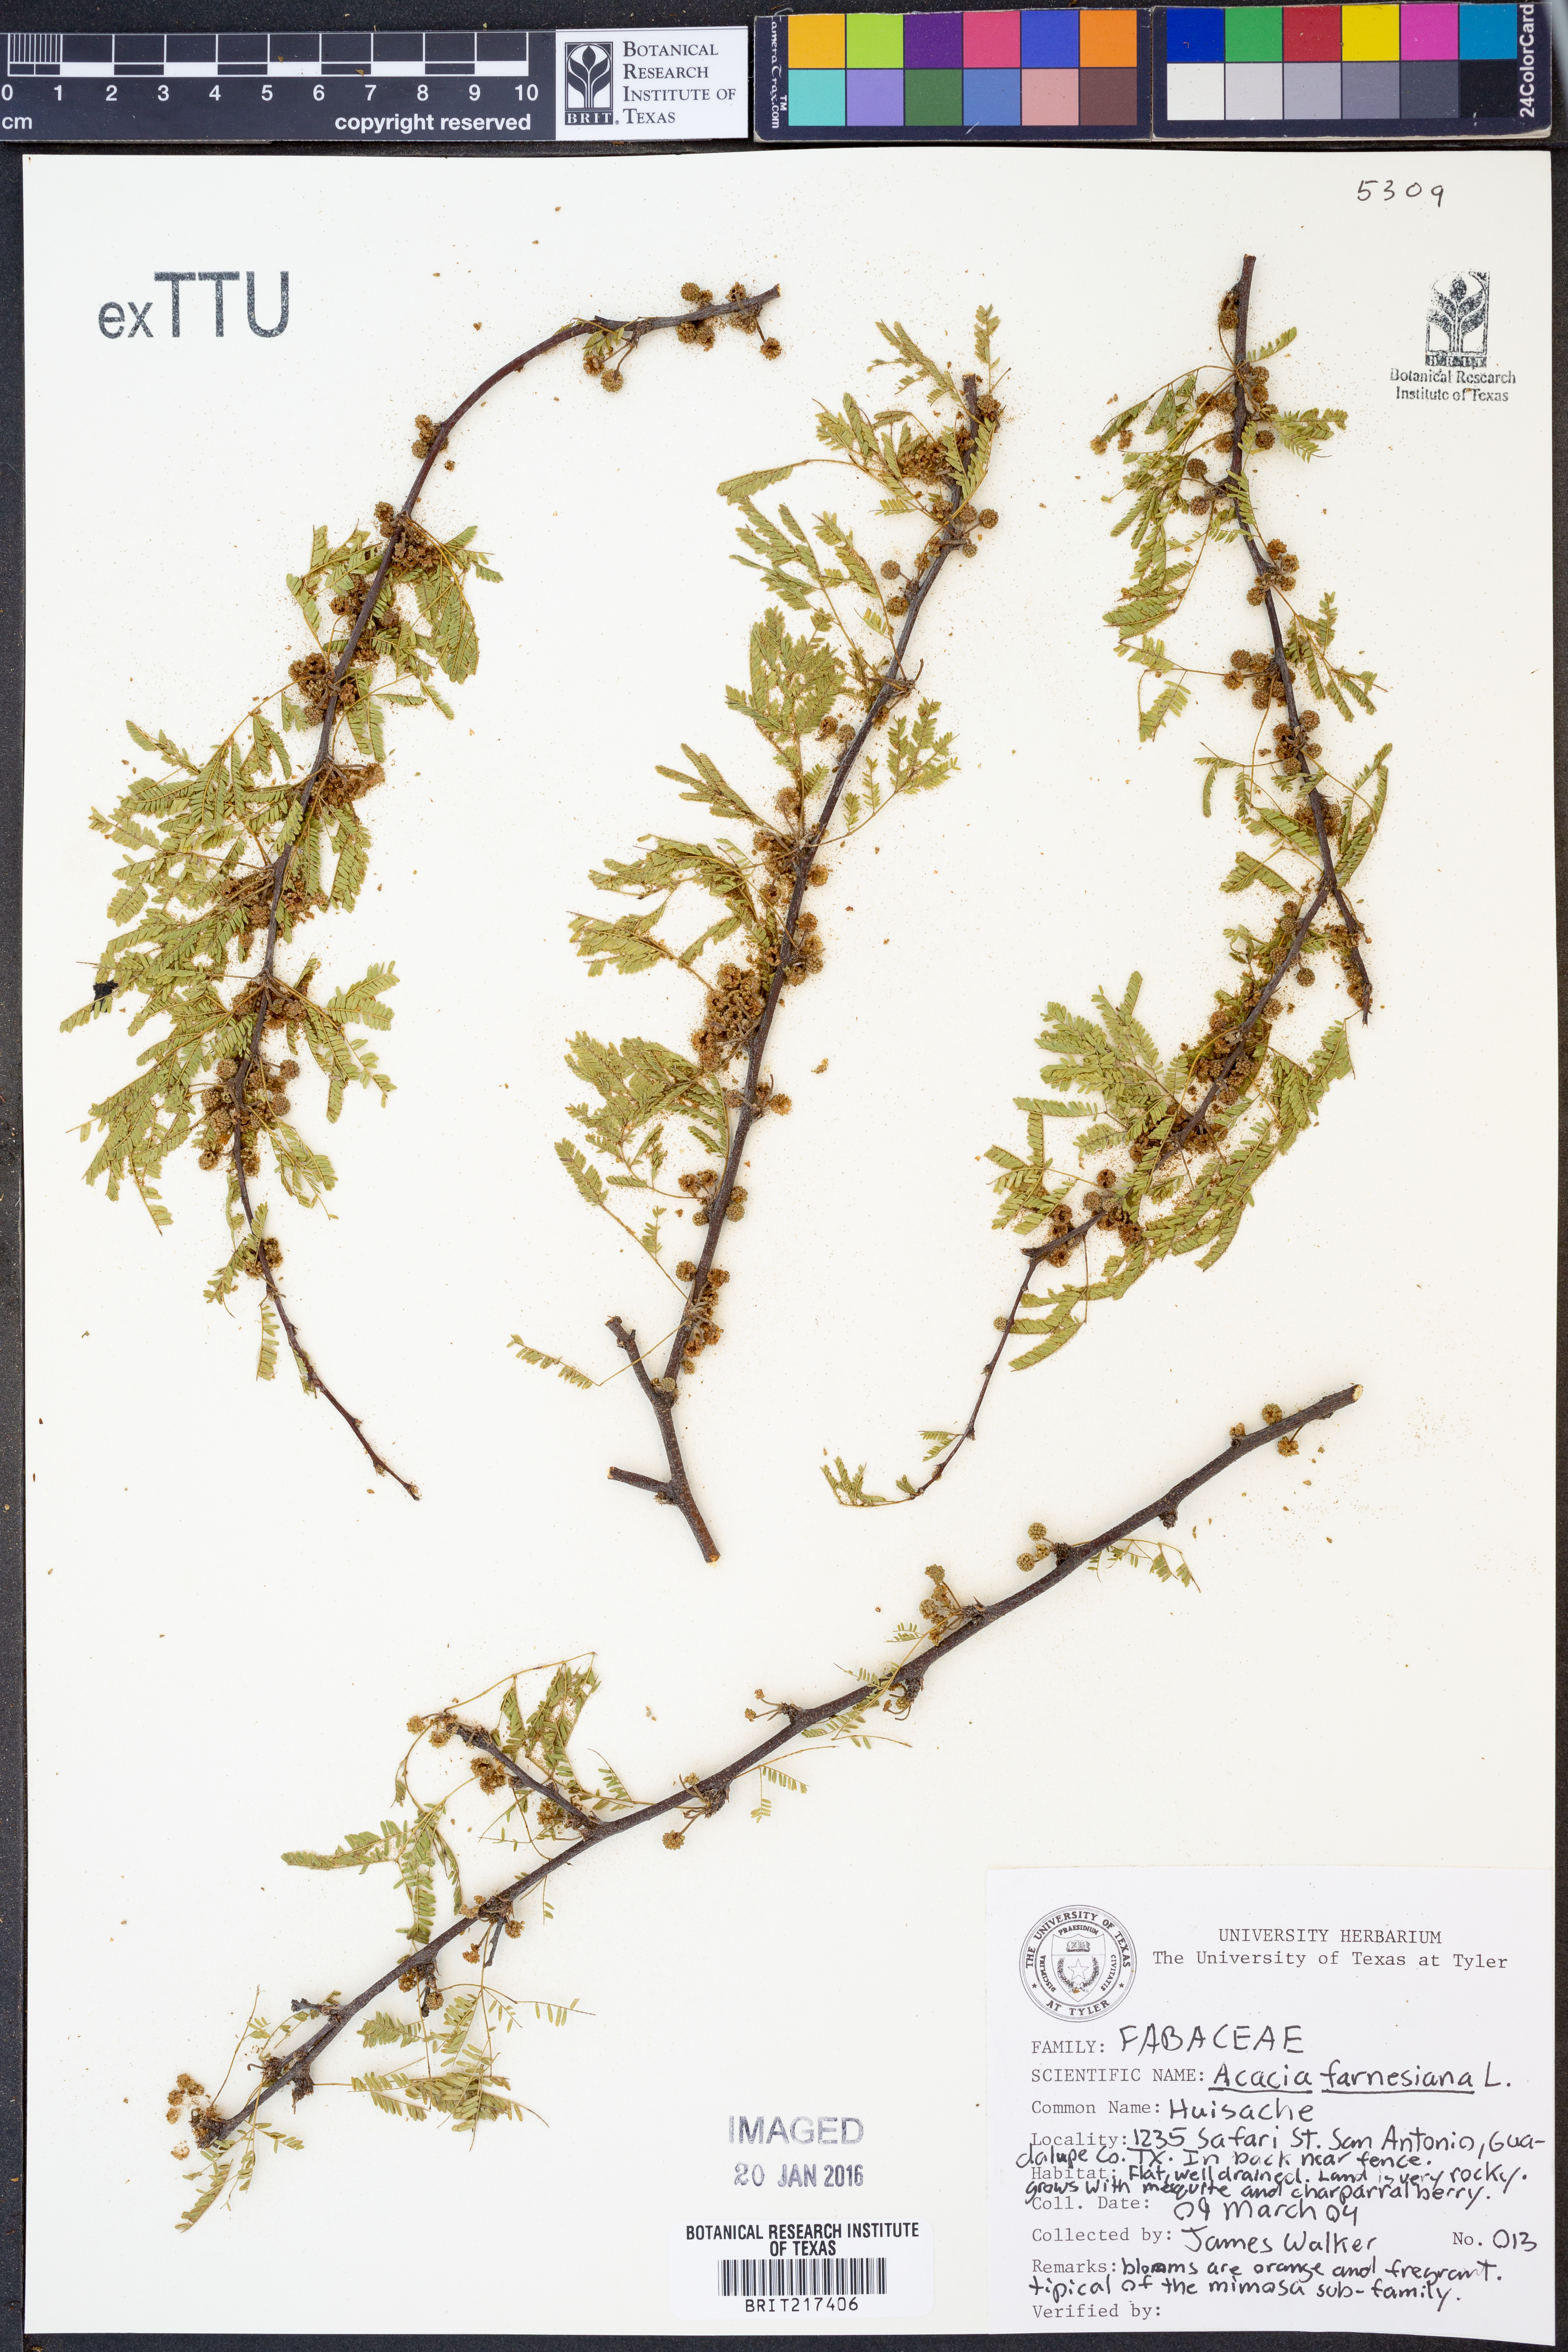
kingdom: Plantae
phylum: Tracheophyta
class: Magnoliopsida
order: Fabales
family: Fabaceae
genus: Vachellia
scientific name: Vachellia farnesiana
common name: Sweet acacia
